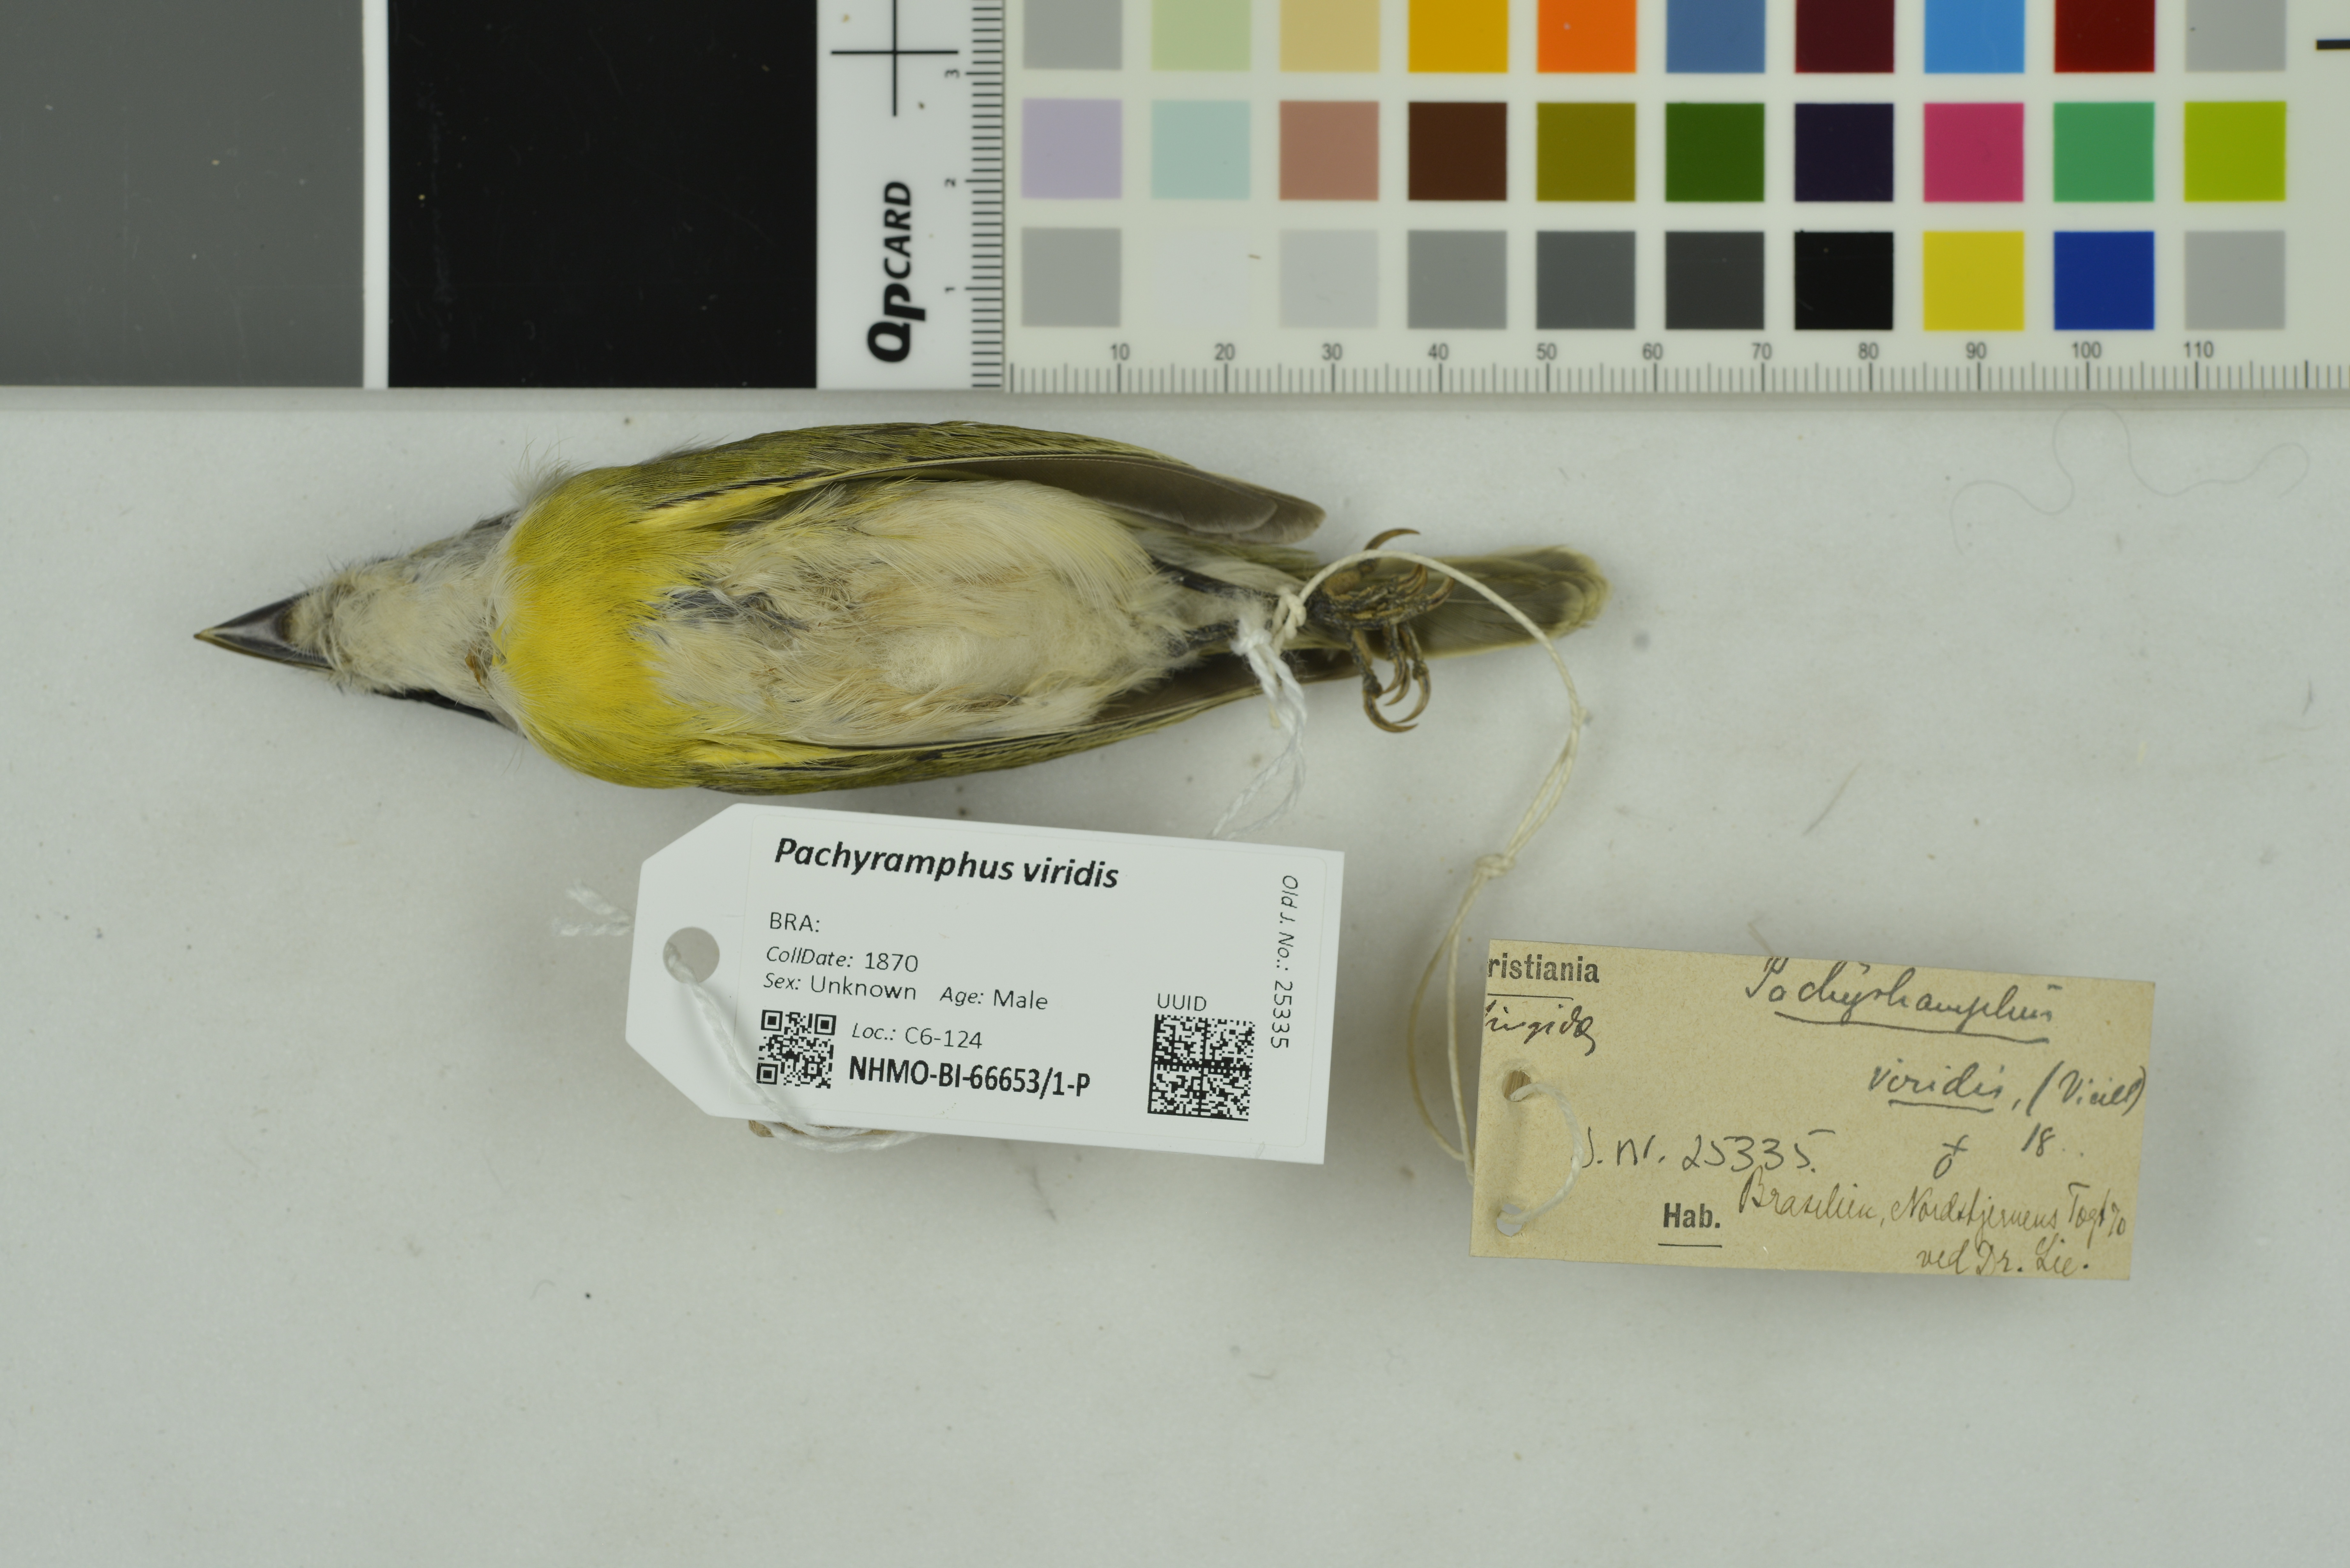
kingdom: Animalia
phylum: Chordata
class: Aves
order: Passeriformes
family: Cotingidae
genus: Pachyramphus
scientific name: Pachyramphus viridis
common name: Green-backed becard
